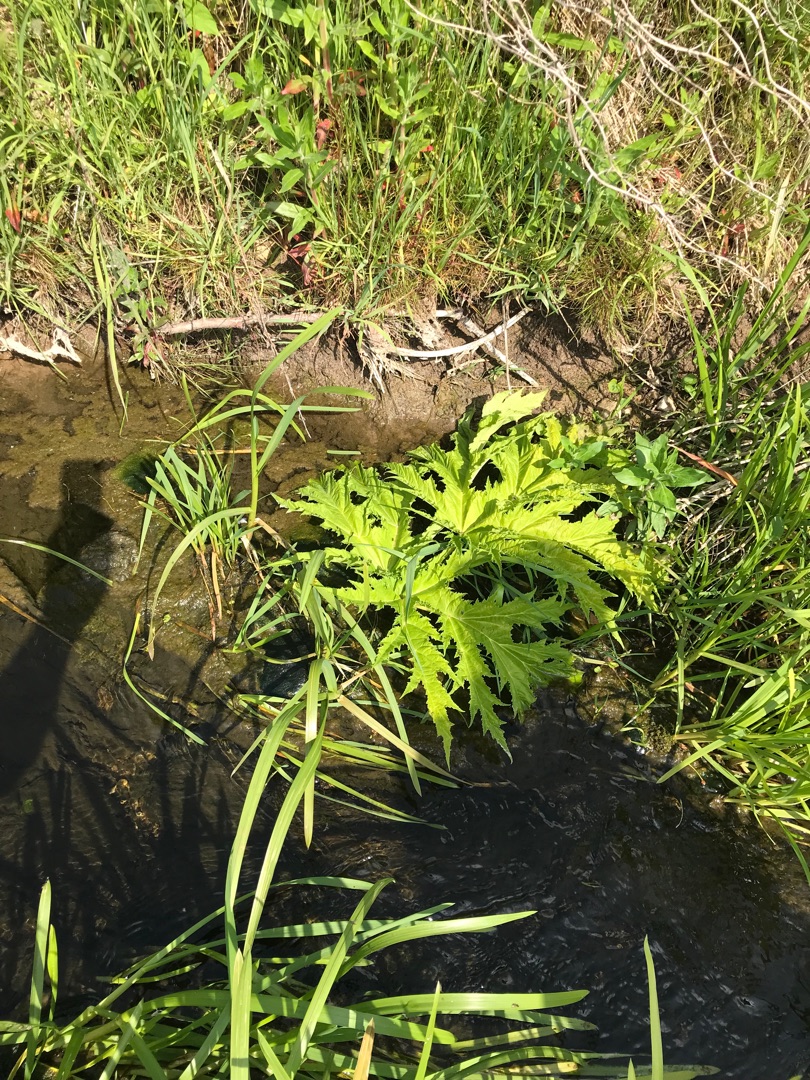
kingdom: Plantae
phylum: Tracheophyta
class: Magnoliopsida
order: Apiales
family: Apiaceae
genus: Heracleum
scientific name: Heracleum mantegazzianum
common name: Kæmpe-bjørneklo
